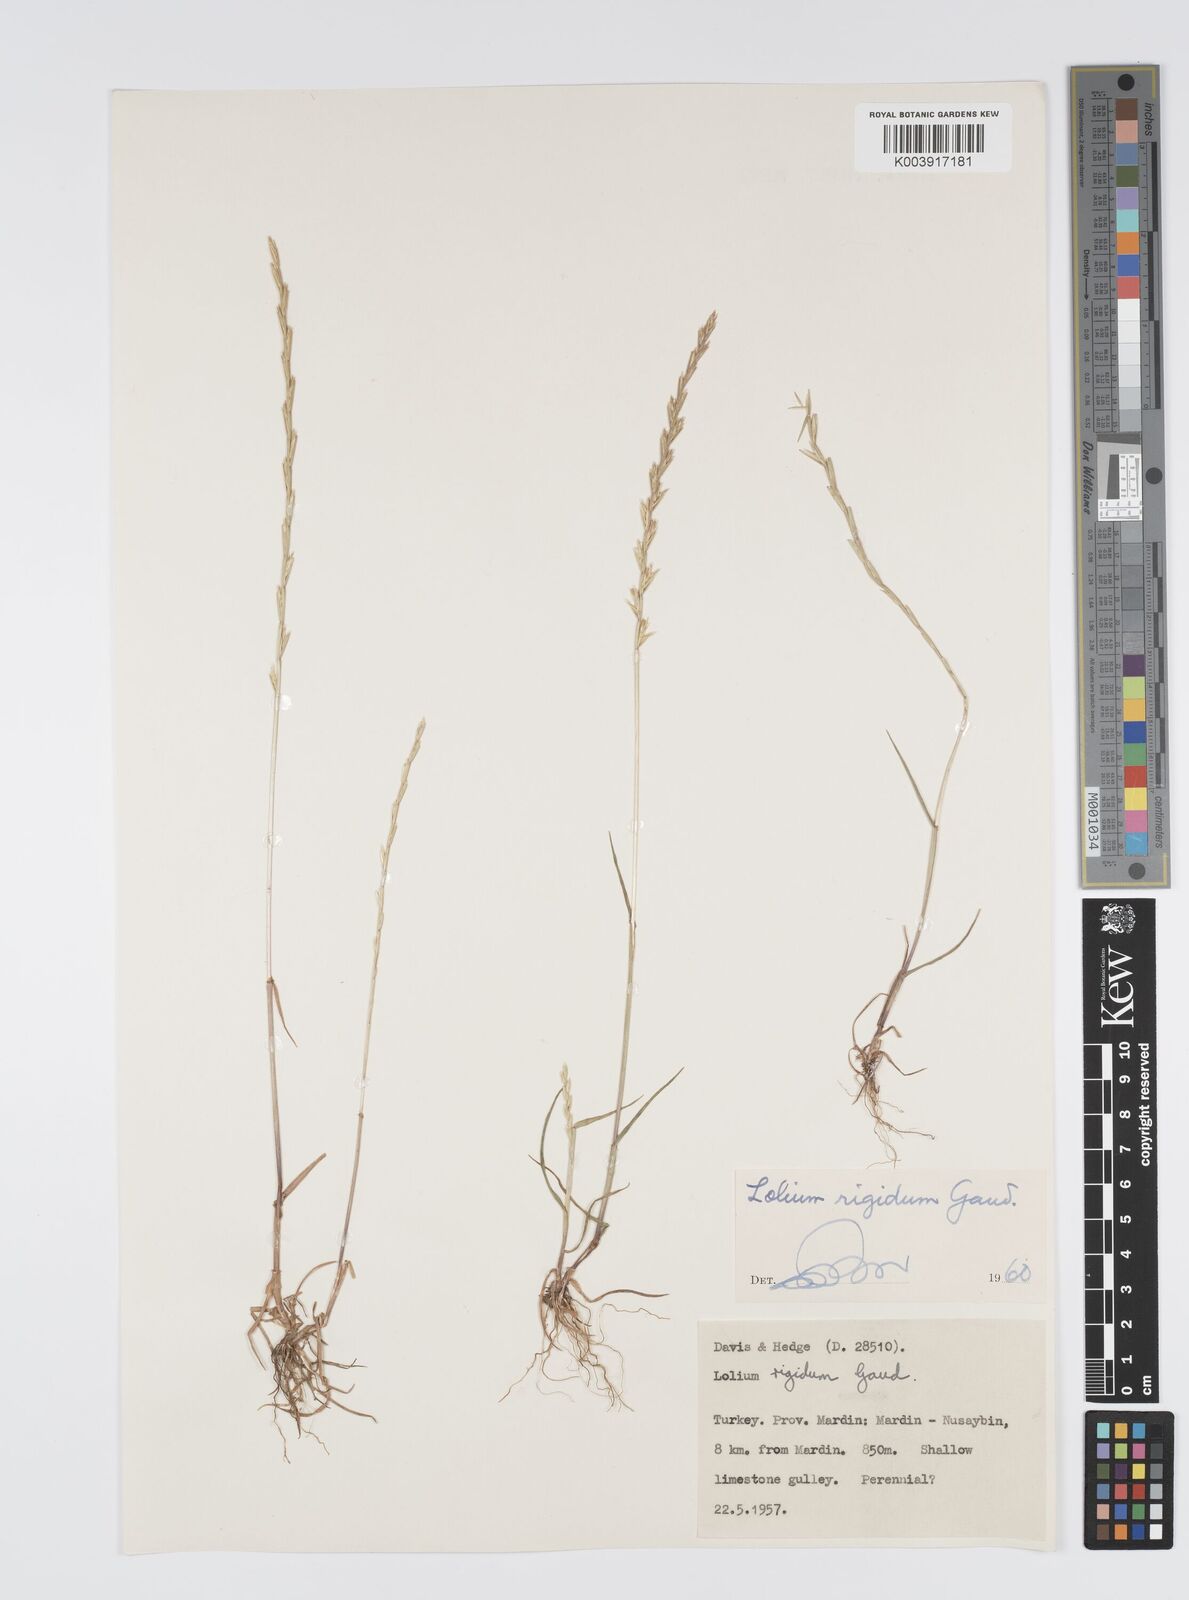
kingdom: Plantae
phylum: Tracheophyta
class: Liliopsida
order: Poales
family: Poaceae
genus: Lolium
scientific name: Lolium rigidum
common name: Wimmera ryegrass
